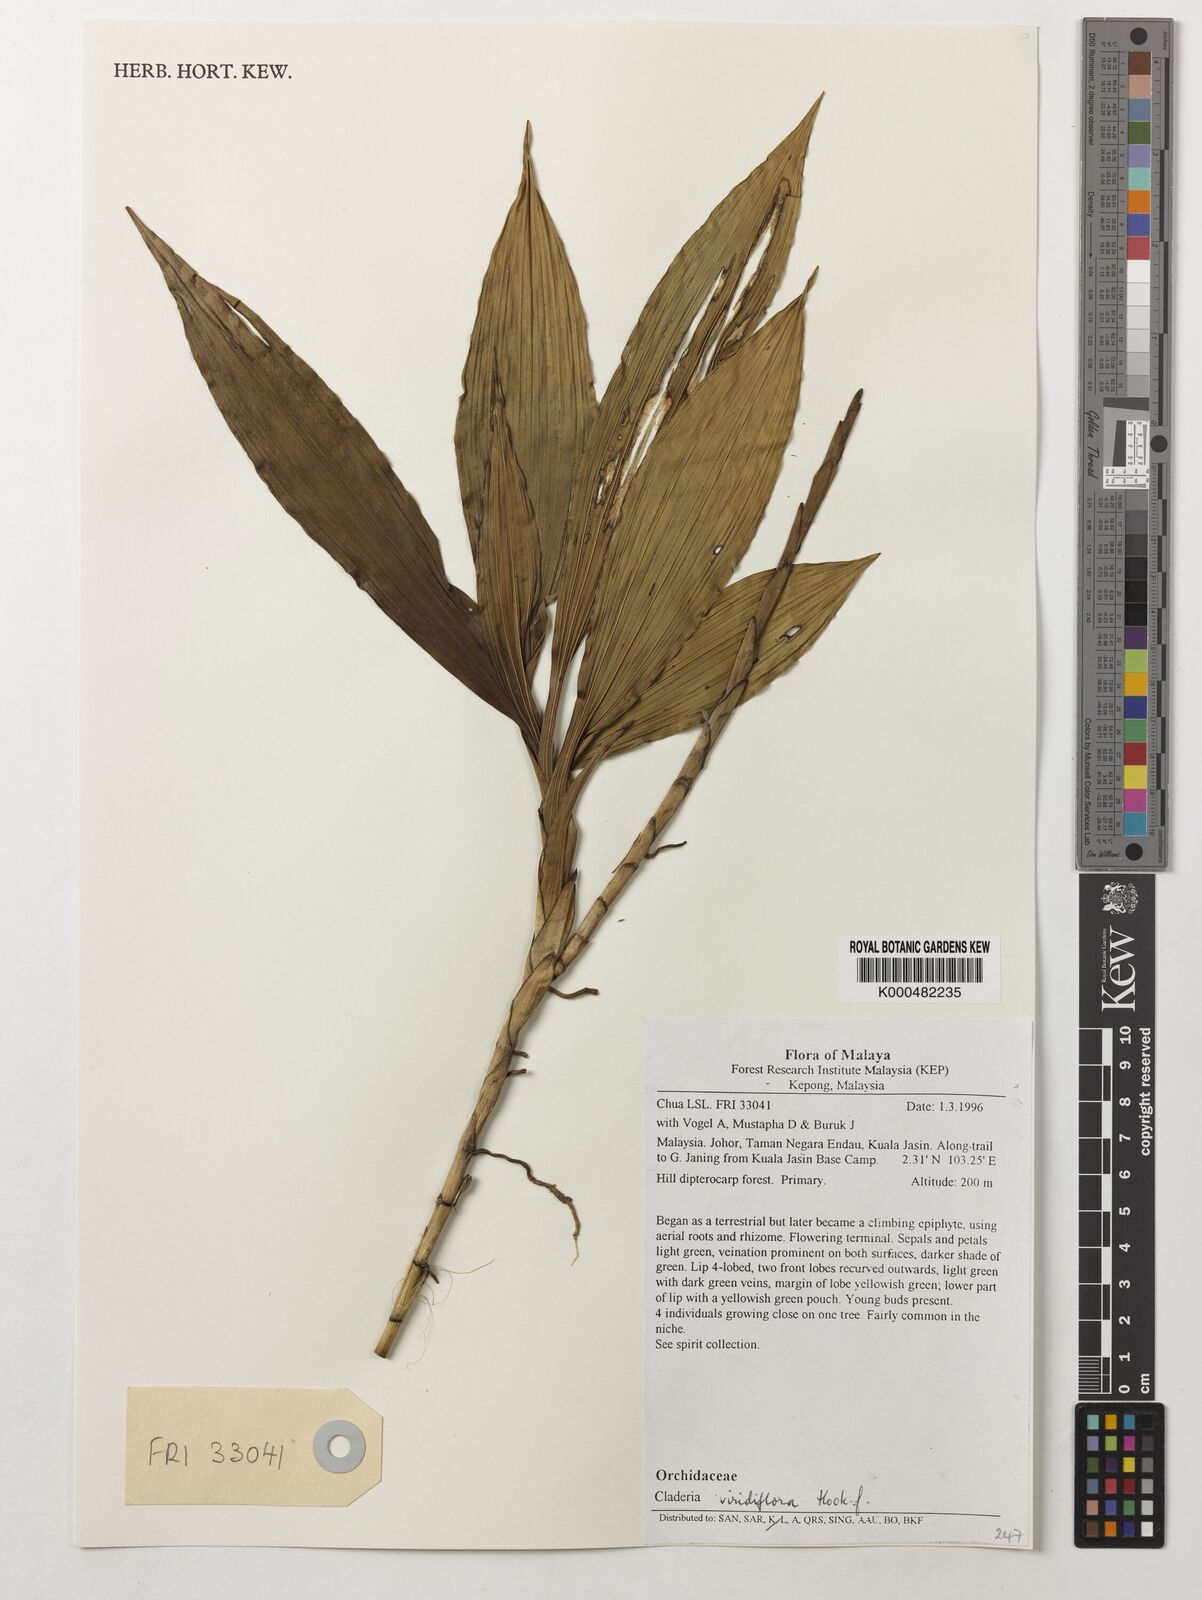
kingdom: Plantae
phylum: Tracheophyta
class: Liliopsida
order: Asparagales
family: Orchidaceae
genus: Claderia
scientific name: Claderia
